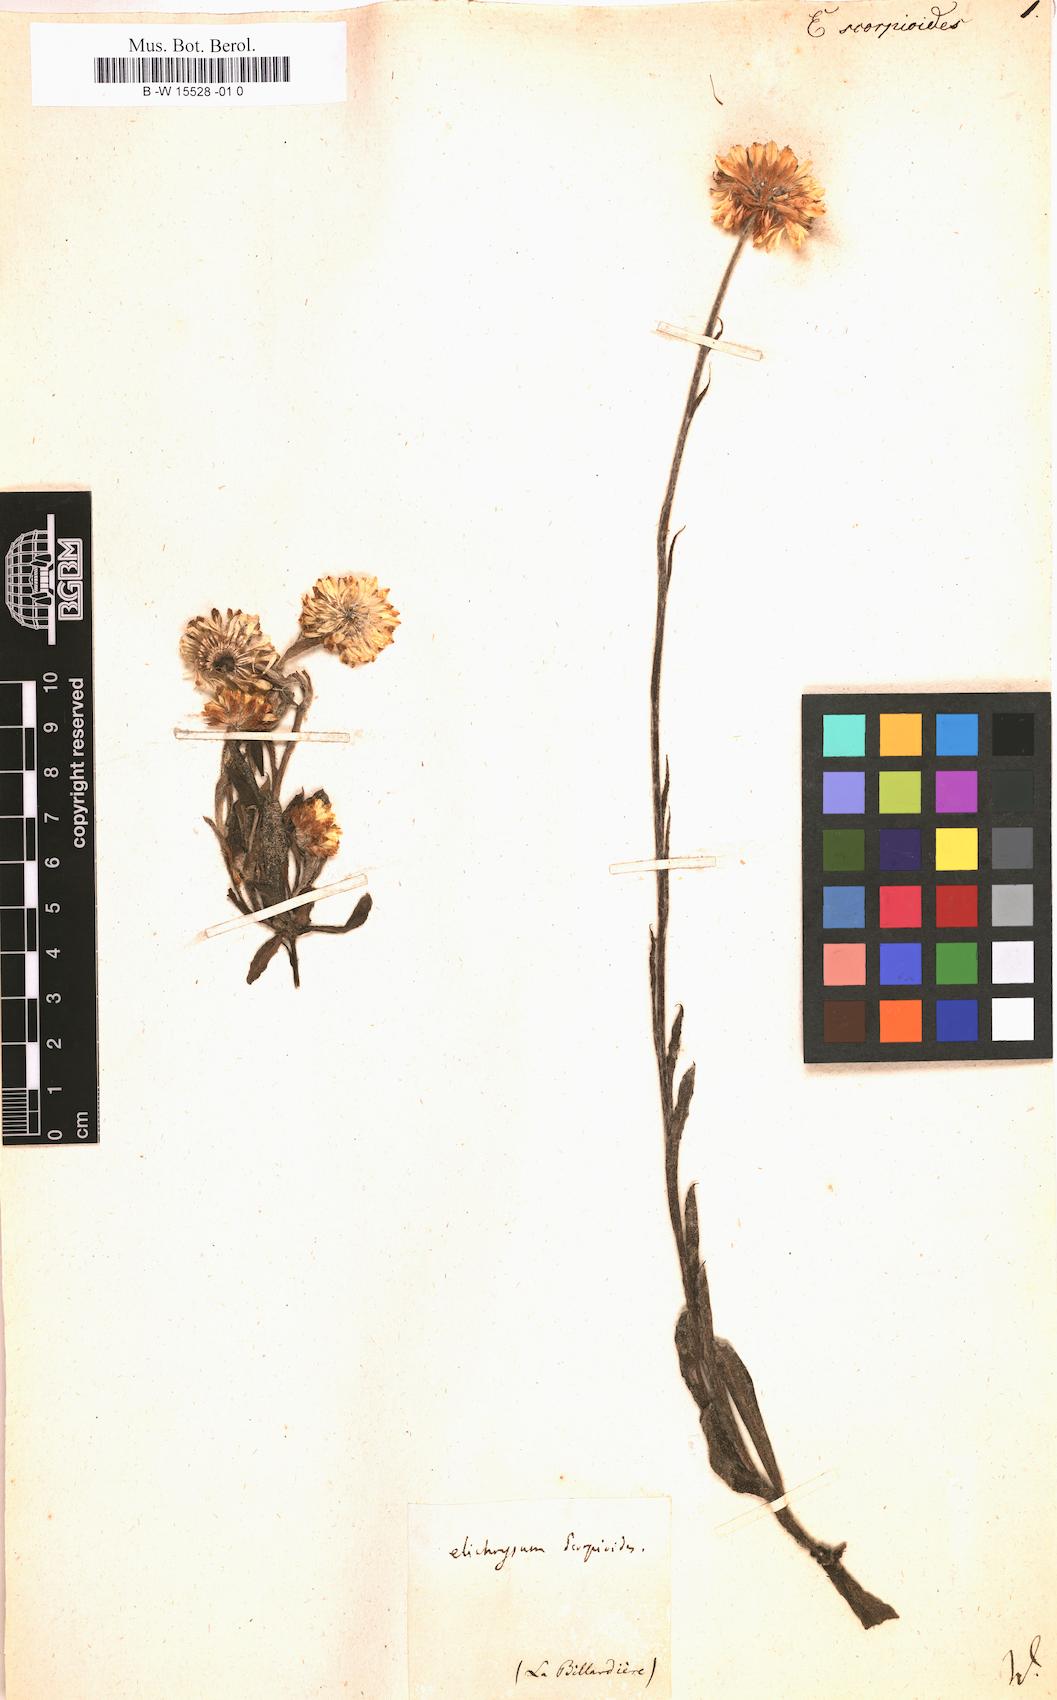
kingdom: Plantae
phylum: Tracheophyta
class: Magnoliopsida
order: Asterales
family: Asteraceae
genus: Helichrysum
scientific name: Helichrysum
